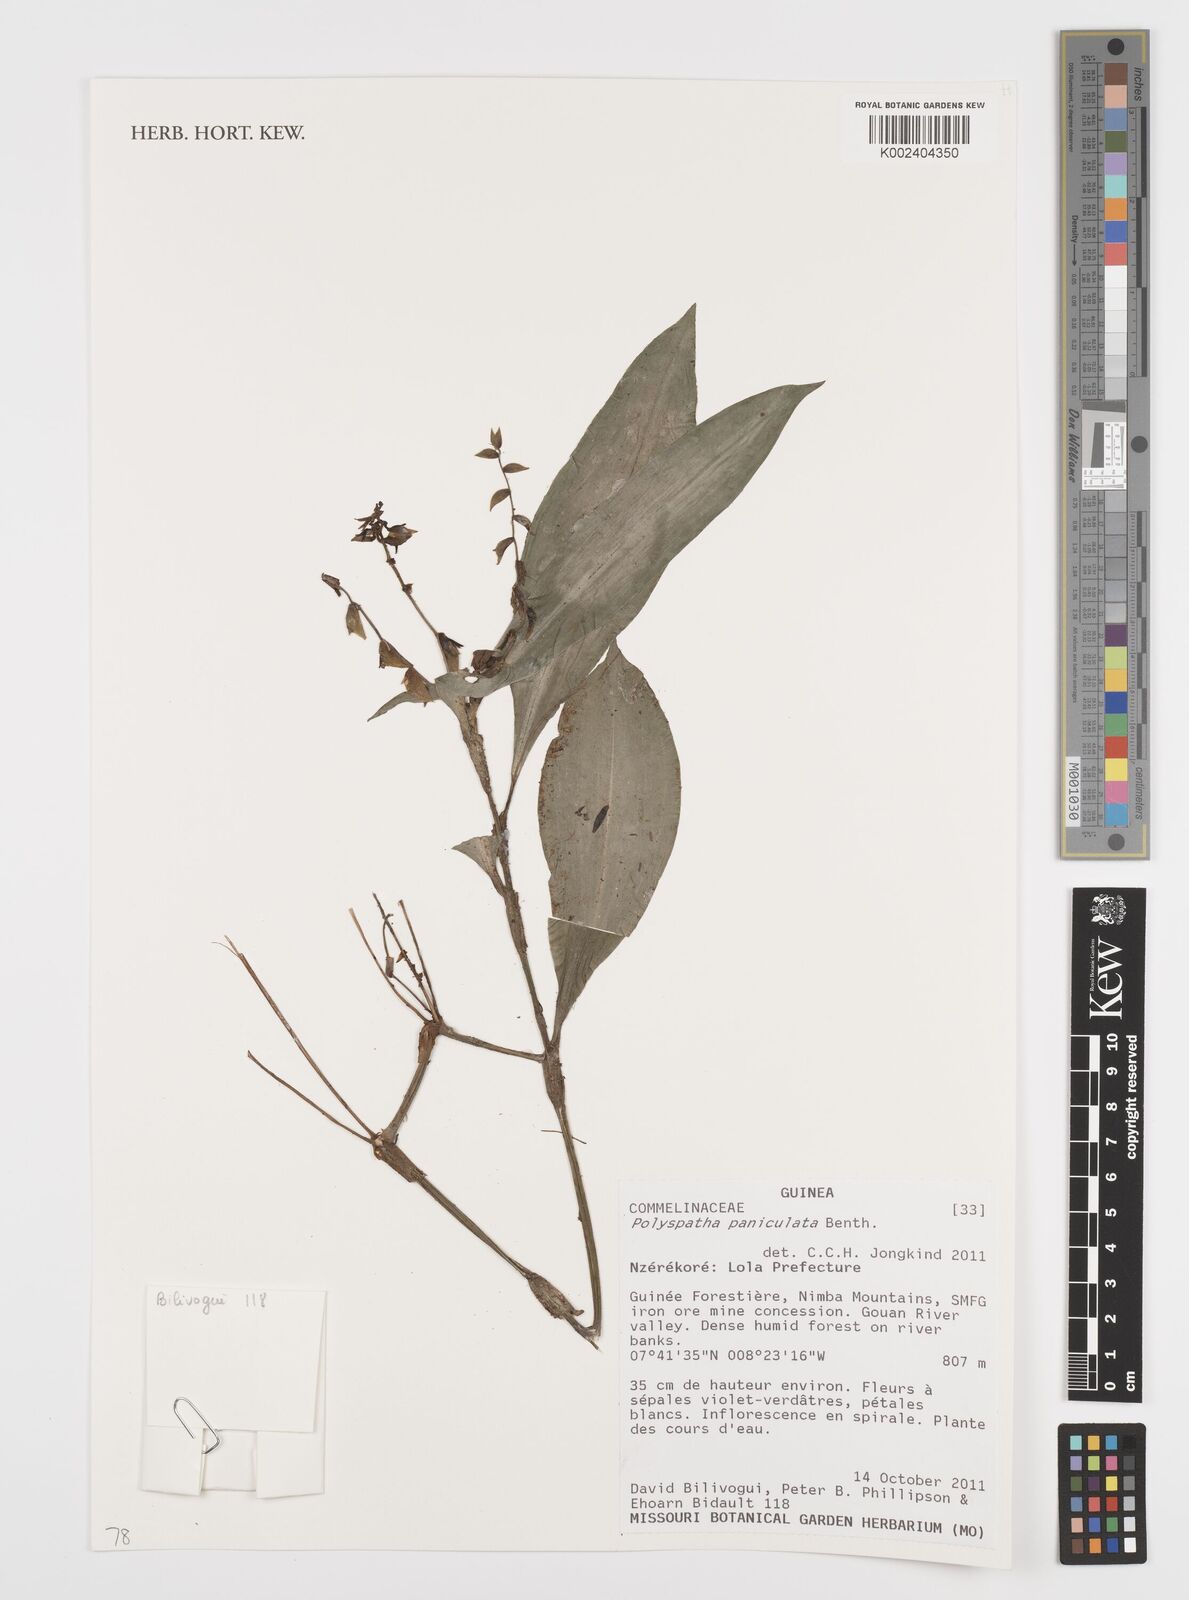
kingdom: Plantae
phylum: Tracheophyta
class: Liliopsida
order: Commelinales
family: Commelinaceae
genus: Polyspatha
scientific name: Polyspatha paniculata
